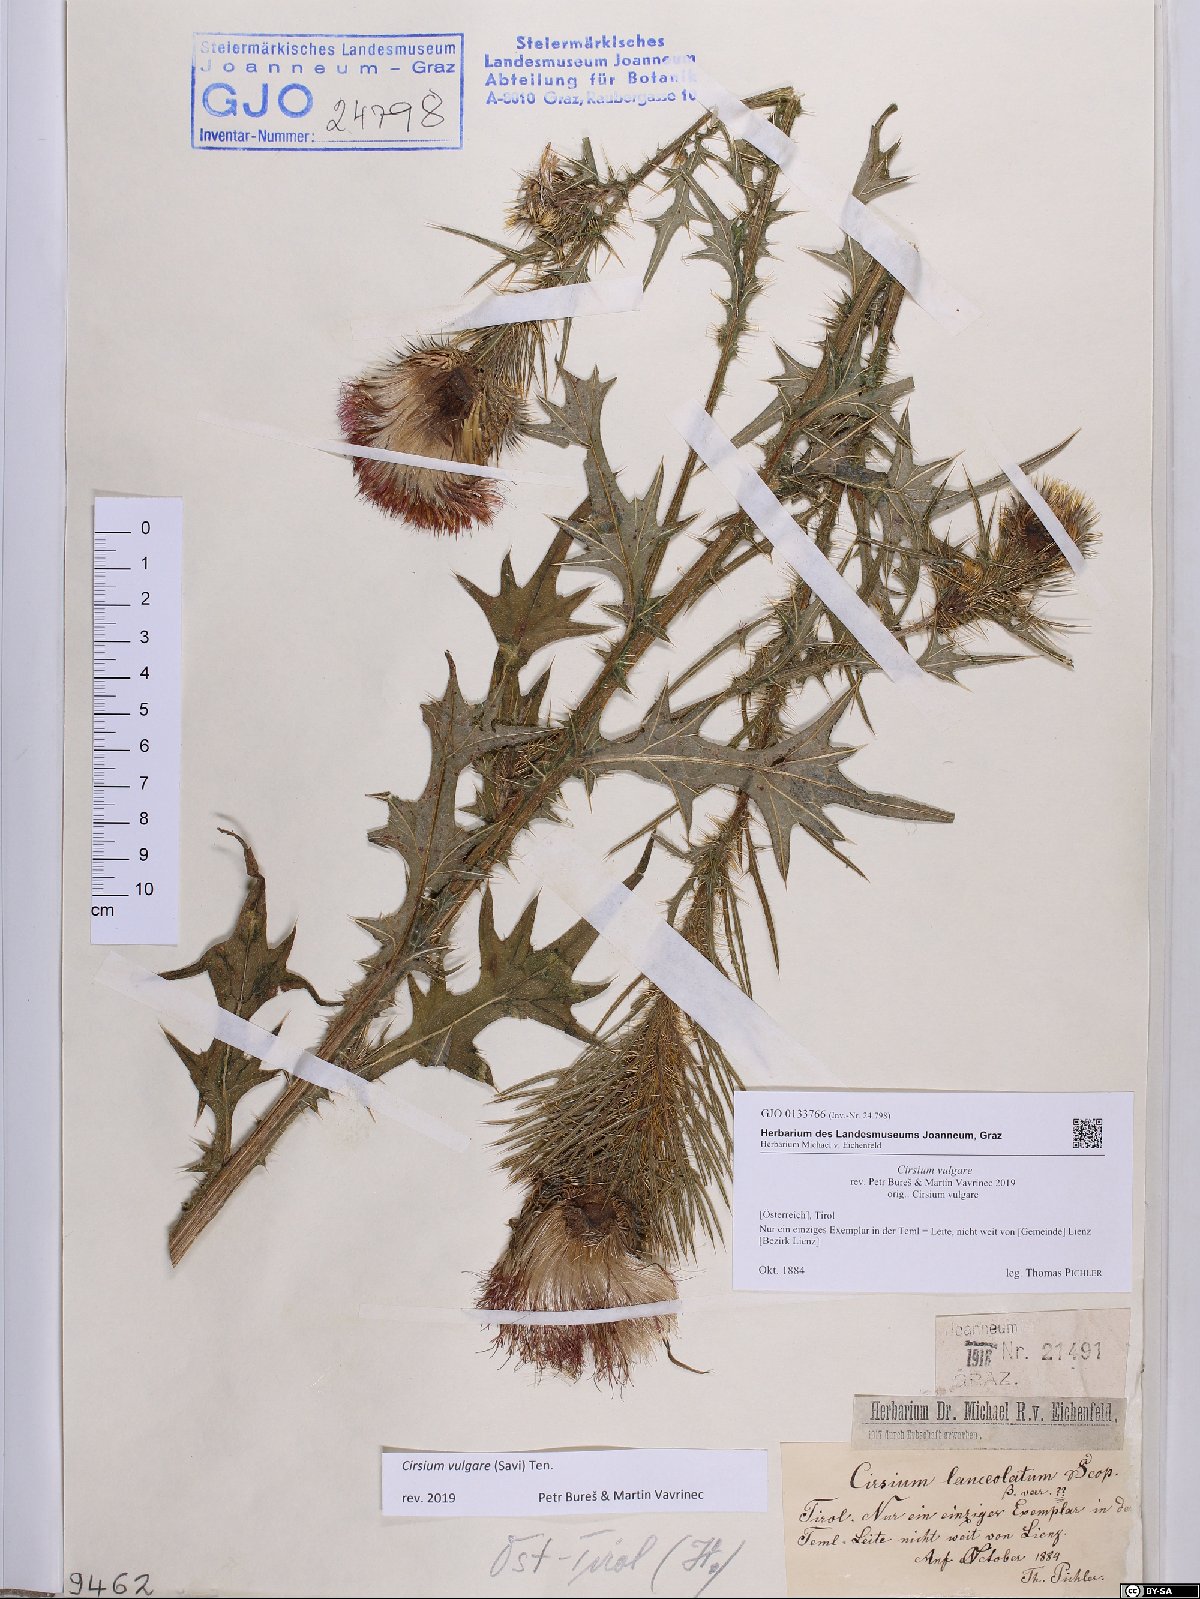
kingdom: Plantae
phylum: Tracheophyta
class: Magnoliopsida
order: Asterales
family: Asteraceae
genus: Cirsium
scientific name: Cirsium vulgare
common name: Bull thistle
